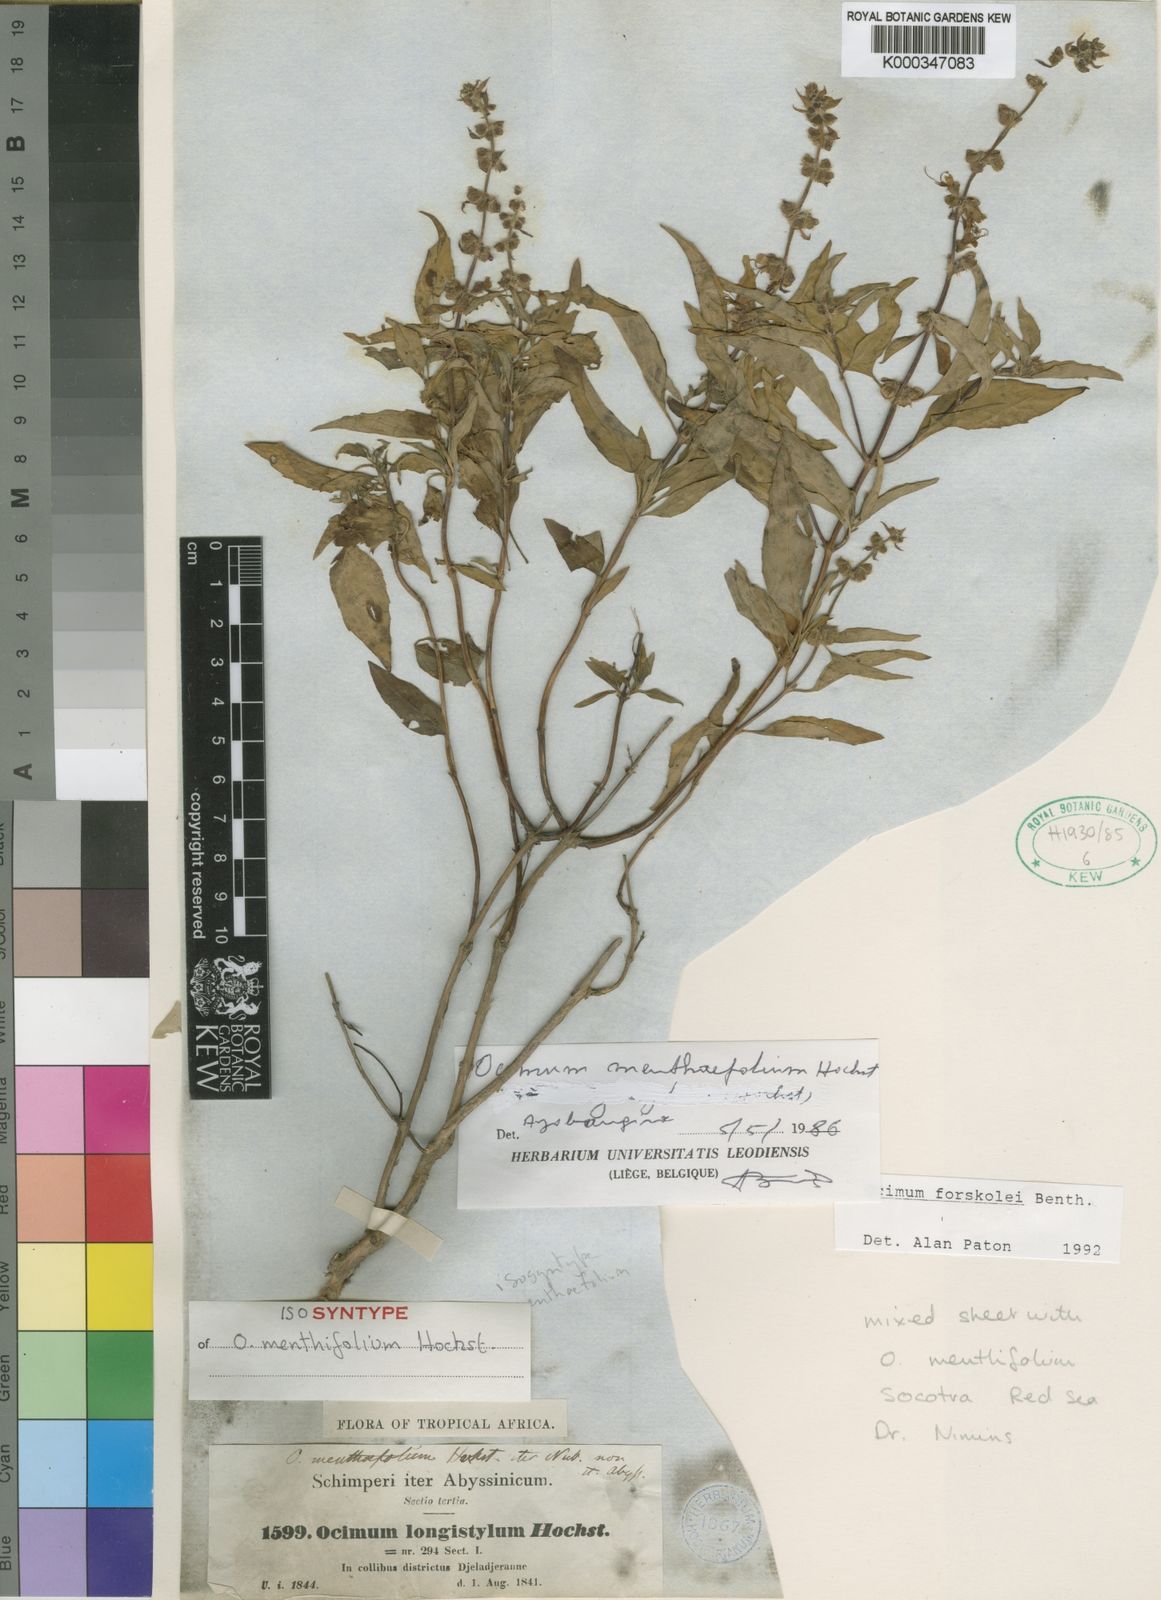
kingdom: Plantae
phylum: Tracheophyta
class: Magnoliopsida
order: Lamiales
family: Lamiaceae
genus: Ocimum
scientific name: Ocimum
